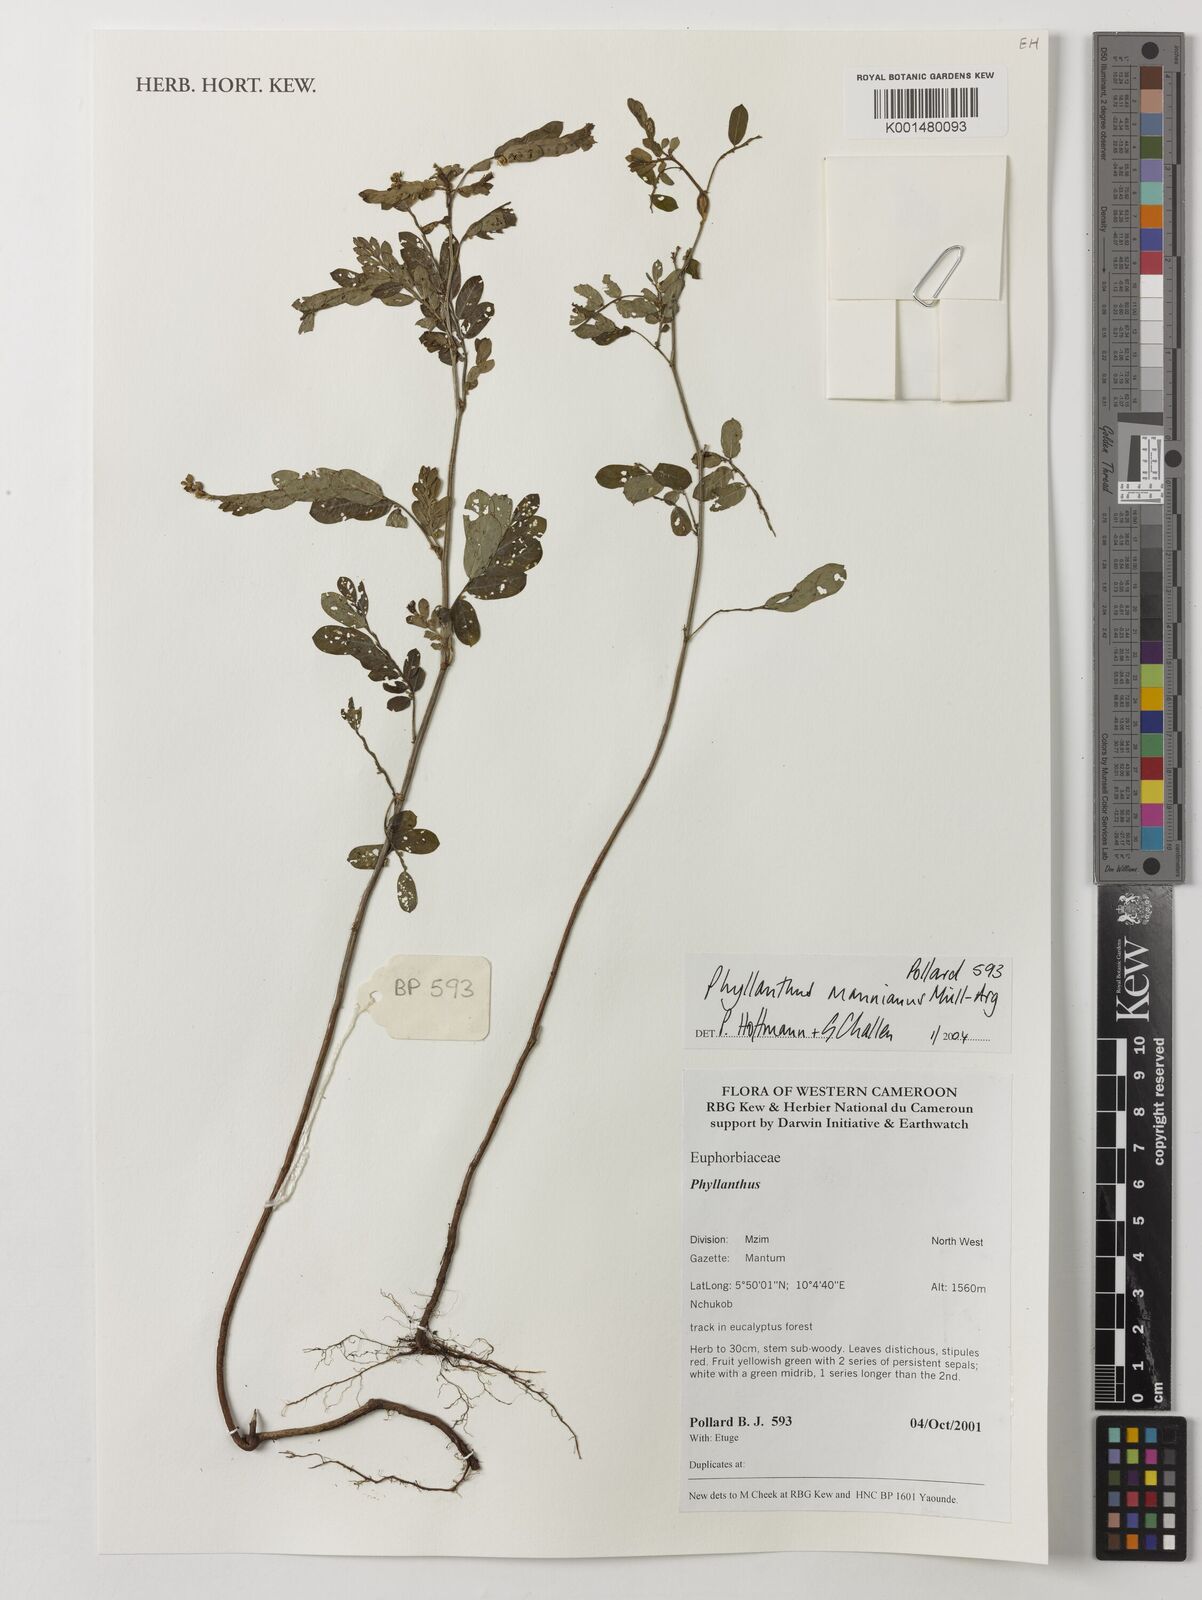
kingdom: Plantae
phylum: Tracheophyta
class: Magnoliopsida
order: Malpighiales
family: Phyllanthaceae
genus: Phyllanthus
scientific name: Phyllanthus mannianus
